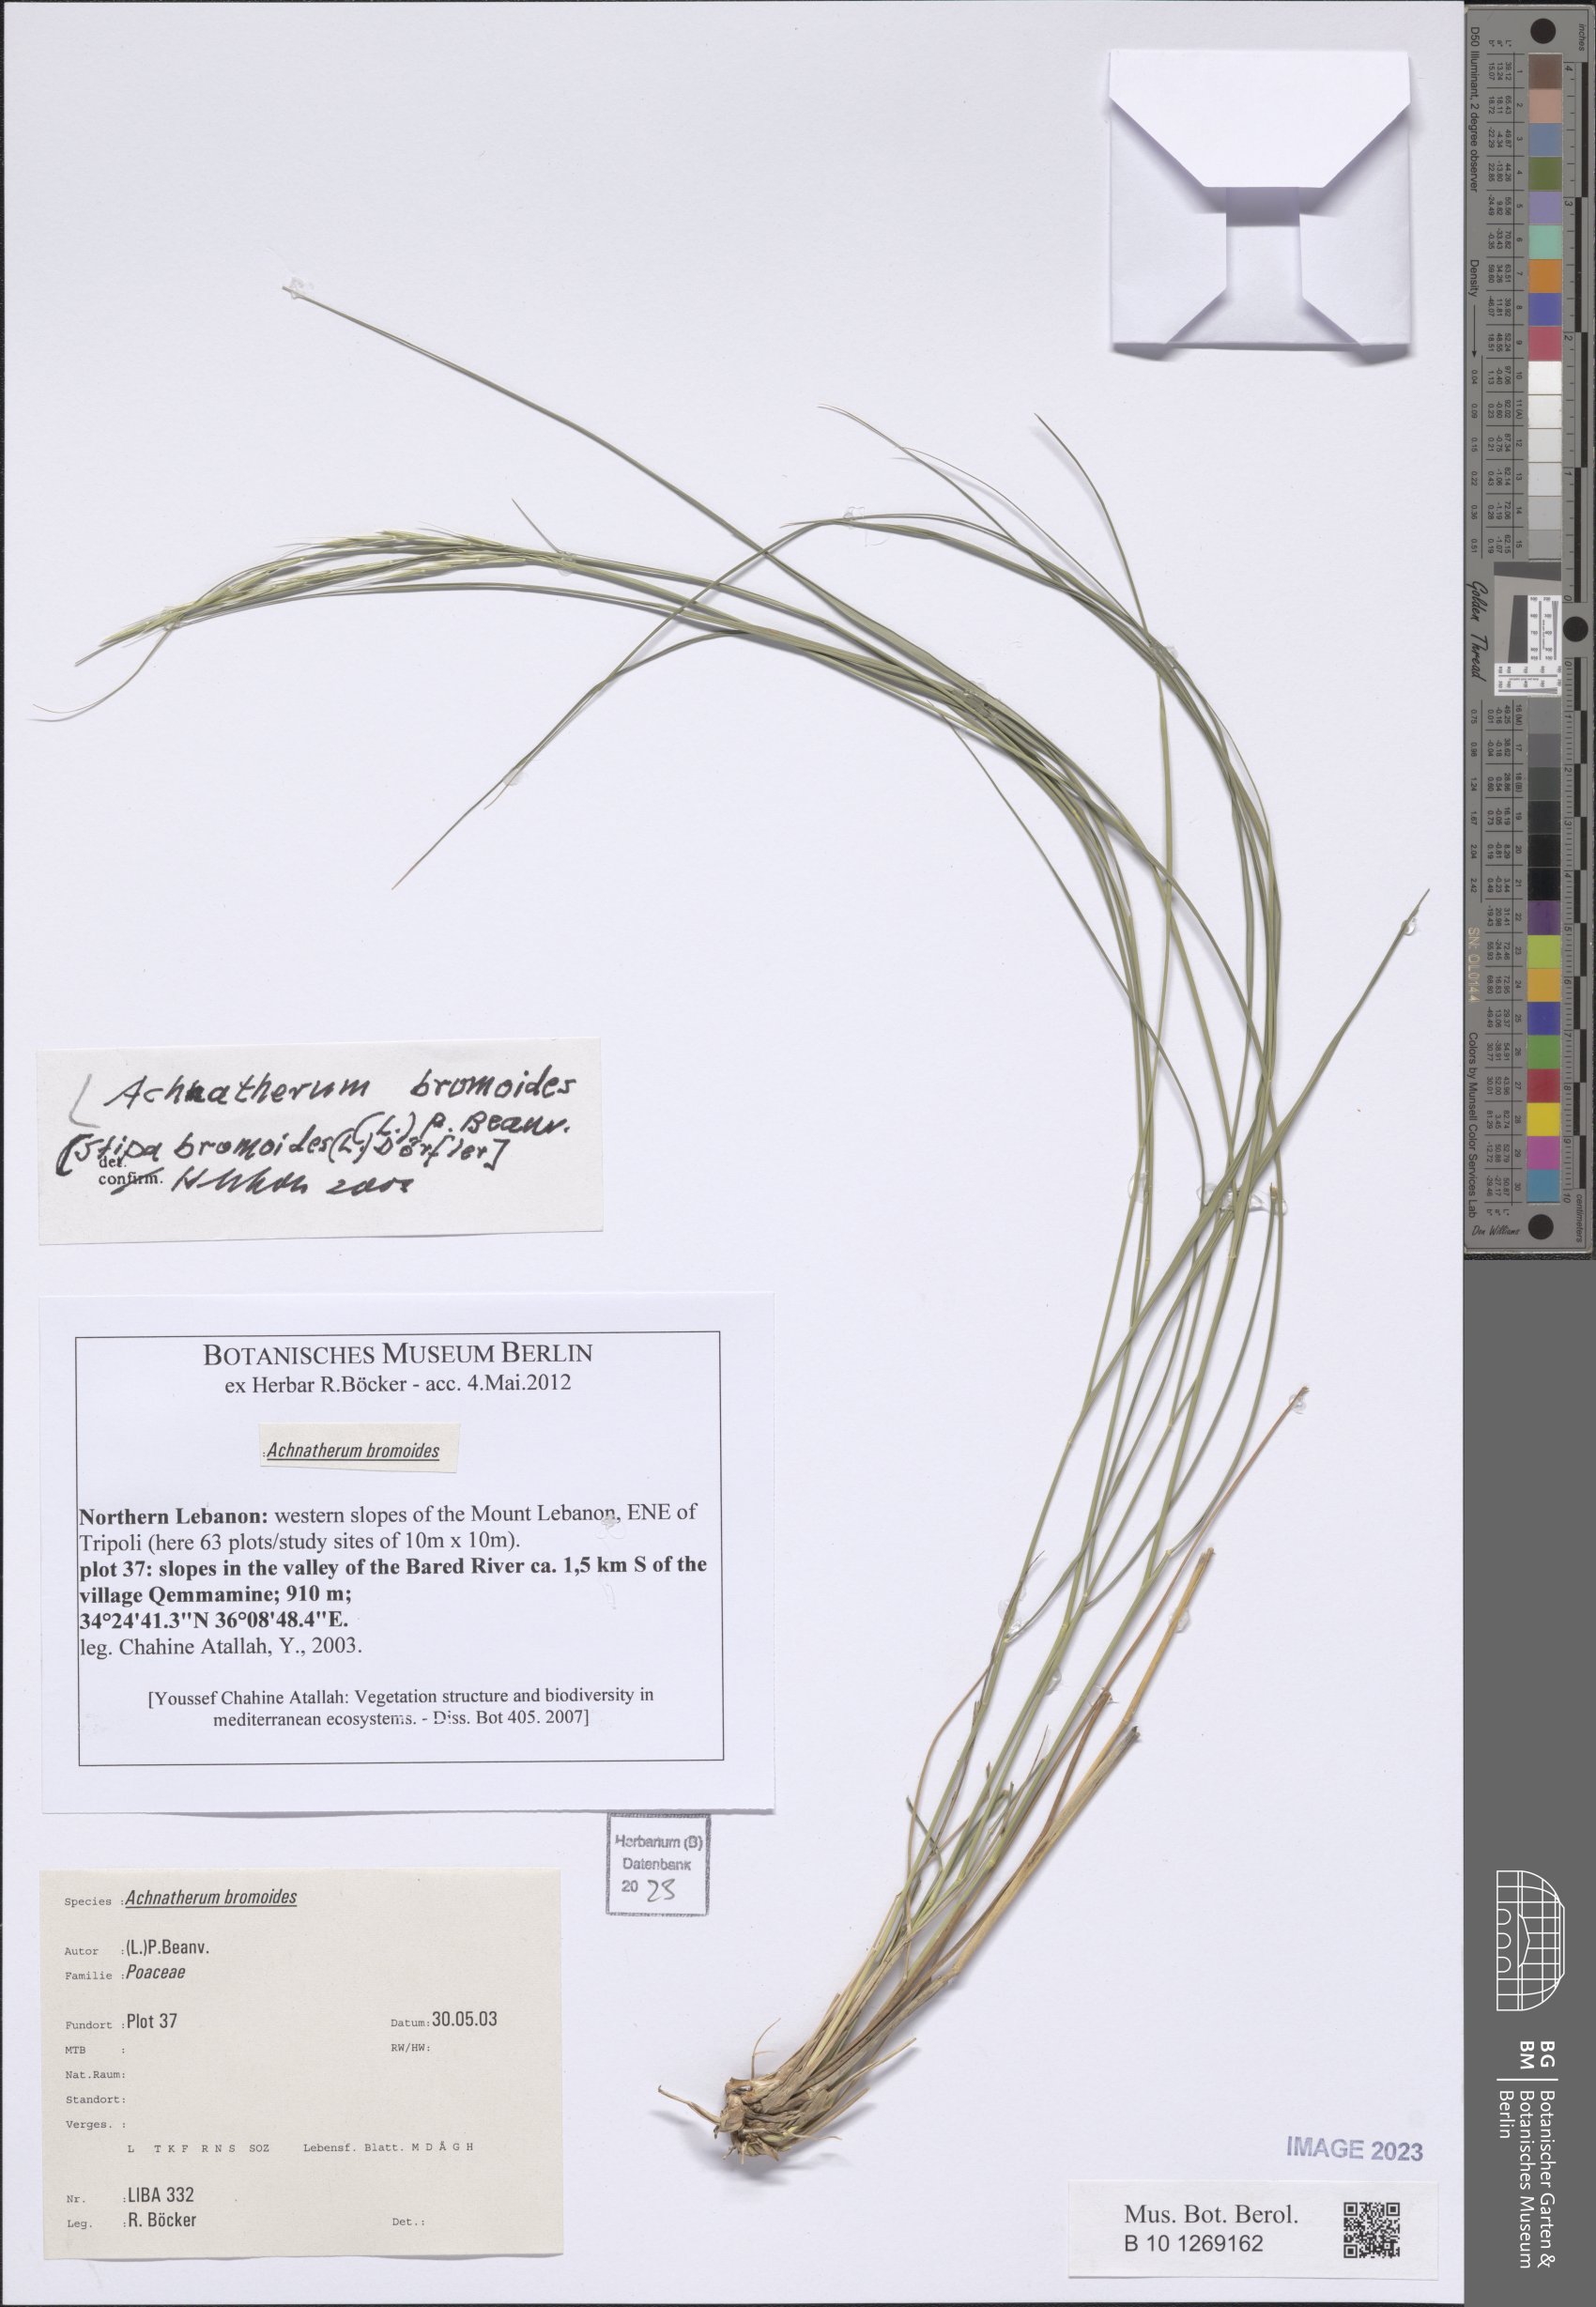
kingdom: Plantae
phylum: Tracheophyta
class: Liliopsida
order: Poales
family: Poaceae
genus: Achnatherum
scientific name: Achnatherum bromoides
